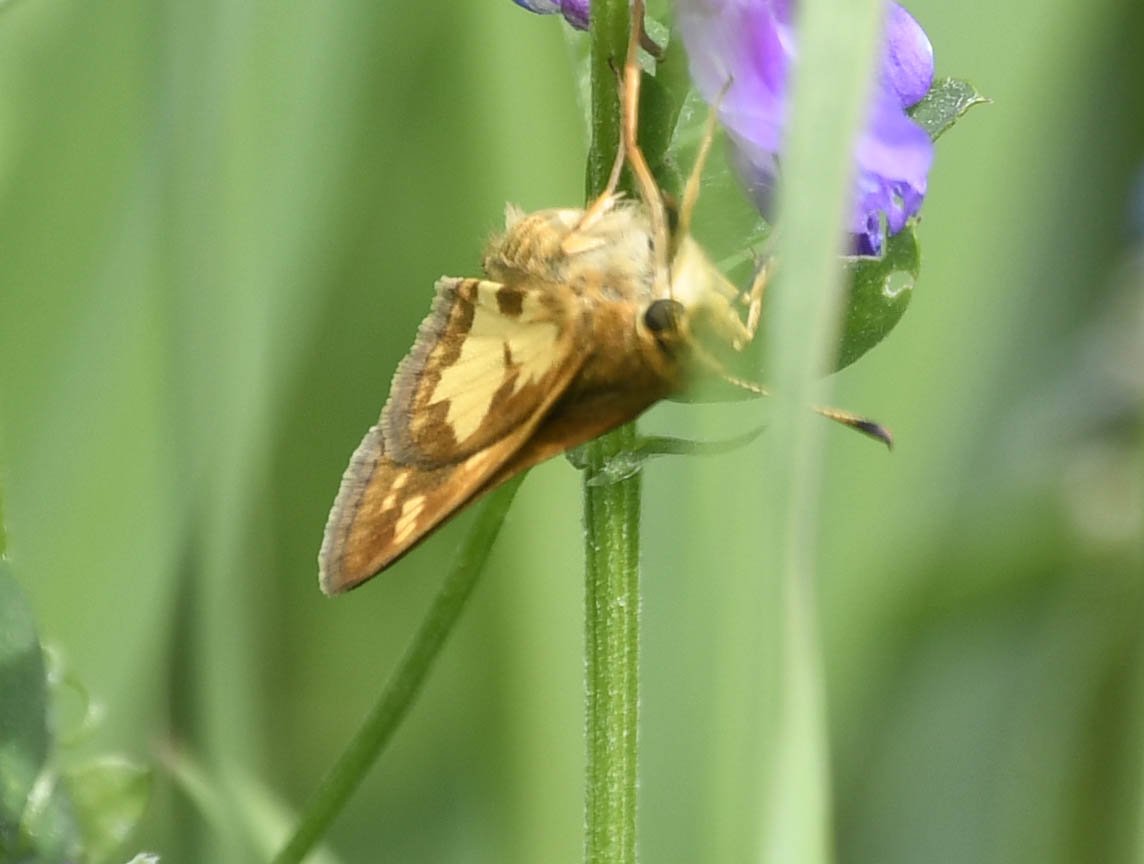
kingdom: Animalia
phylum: Arthropoda
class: Insecta
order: Lepidoptera
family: Hesperiidae
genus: Polites
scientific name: Polites coras
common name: Peck's Skipper
